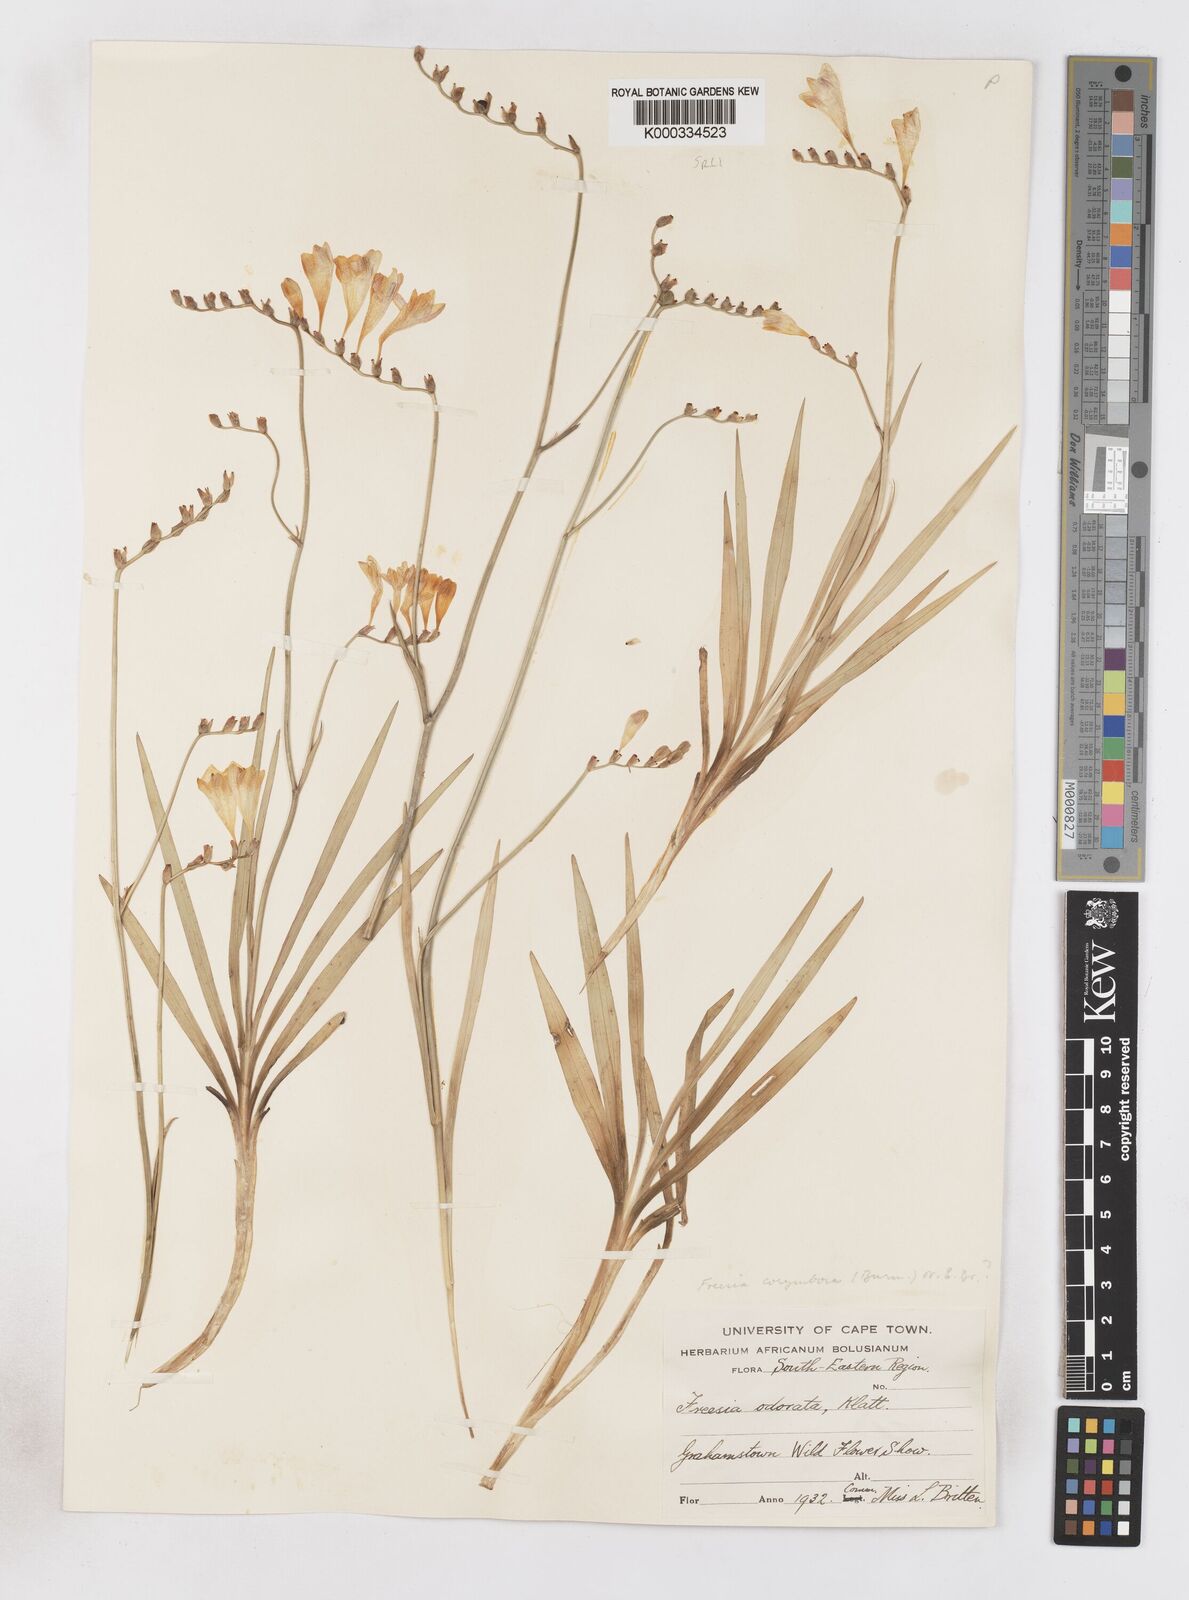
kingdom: Plantae
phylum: Tracheophyta
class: Liliopsida
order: Asparagales
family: Iridaceae
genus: Freesia
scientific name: Freesia corymbosa
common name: Common freesia
